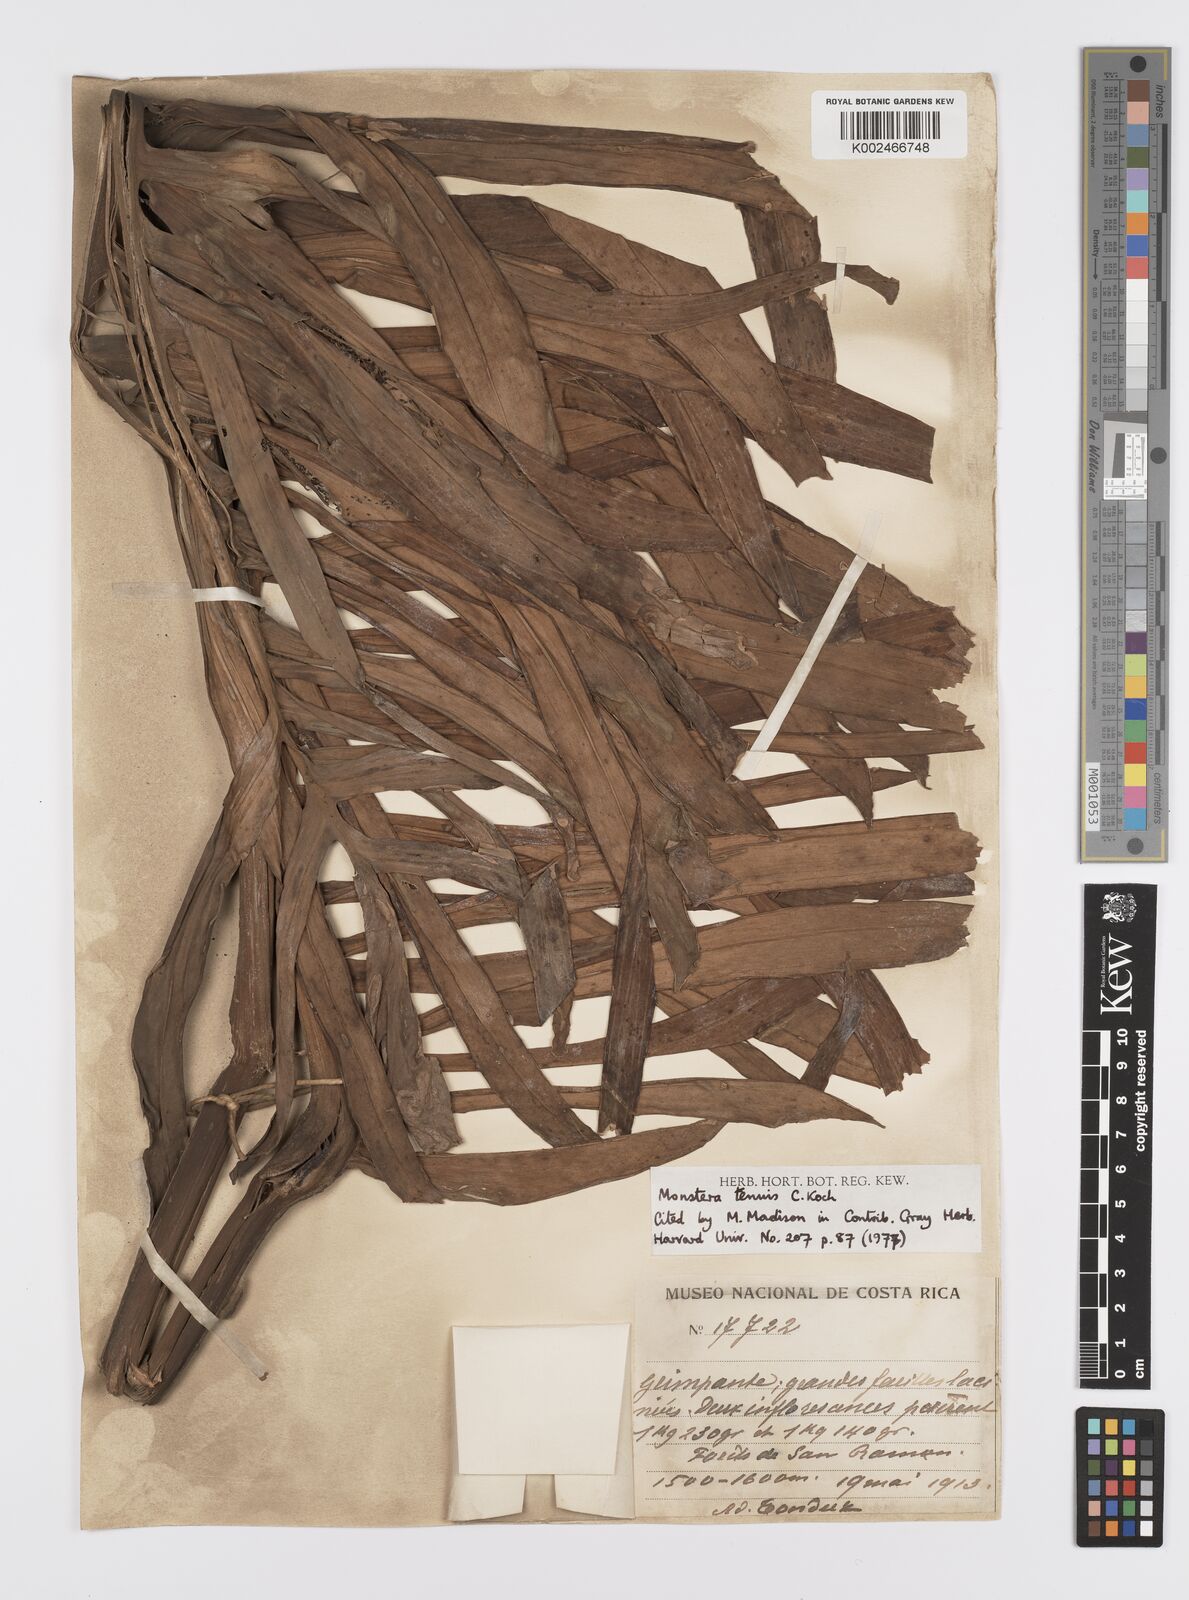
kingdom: Plantae
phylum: Tracheophyta
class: Liliopsida
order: Alismatales
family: Araceae
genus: Monstera
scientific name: Monstera tenuis
